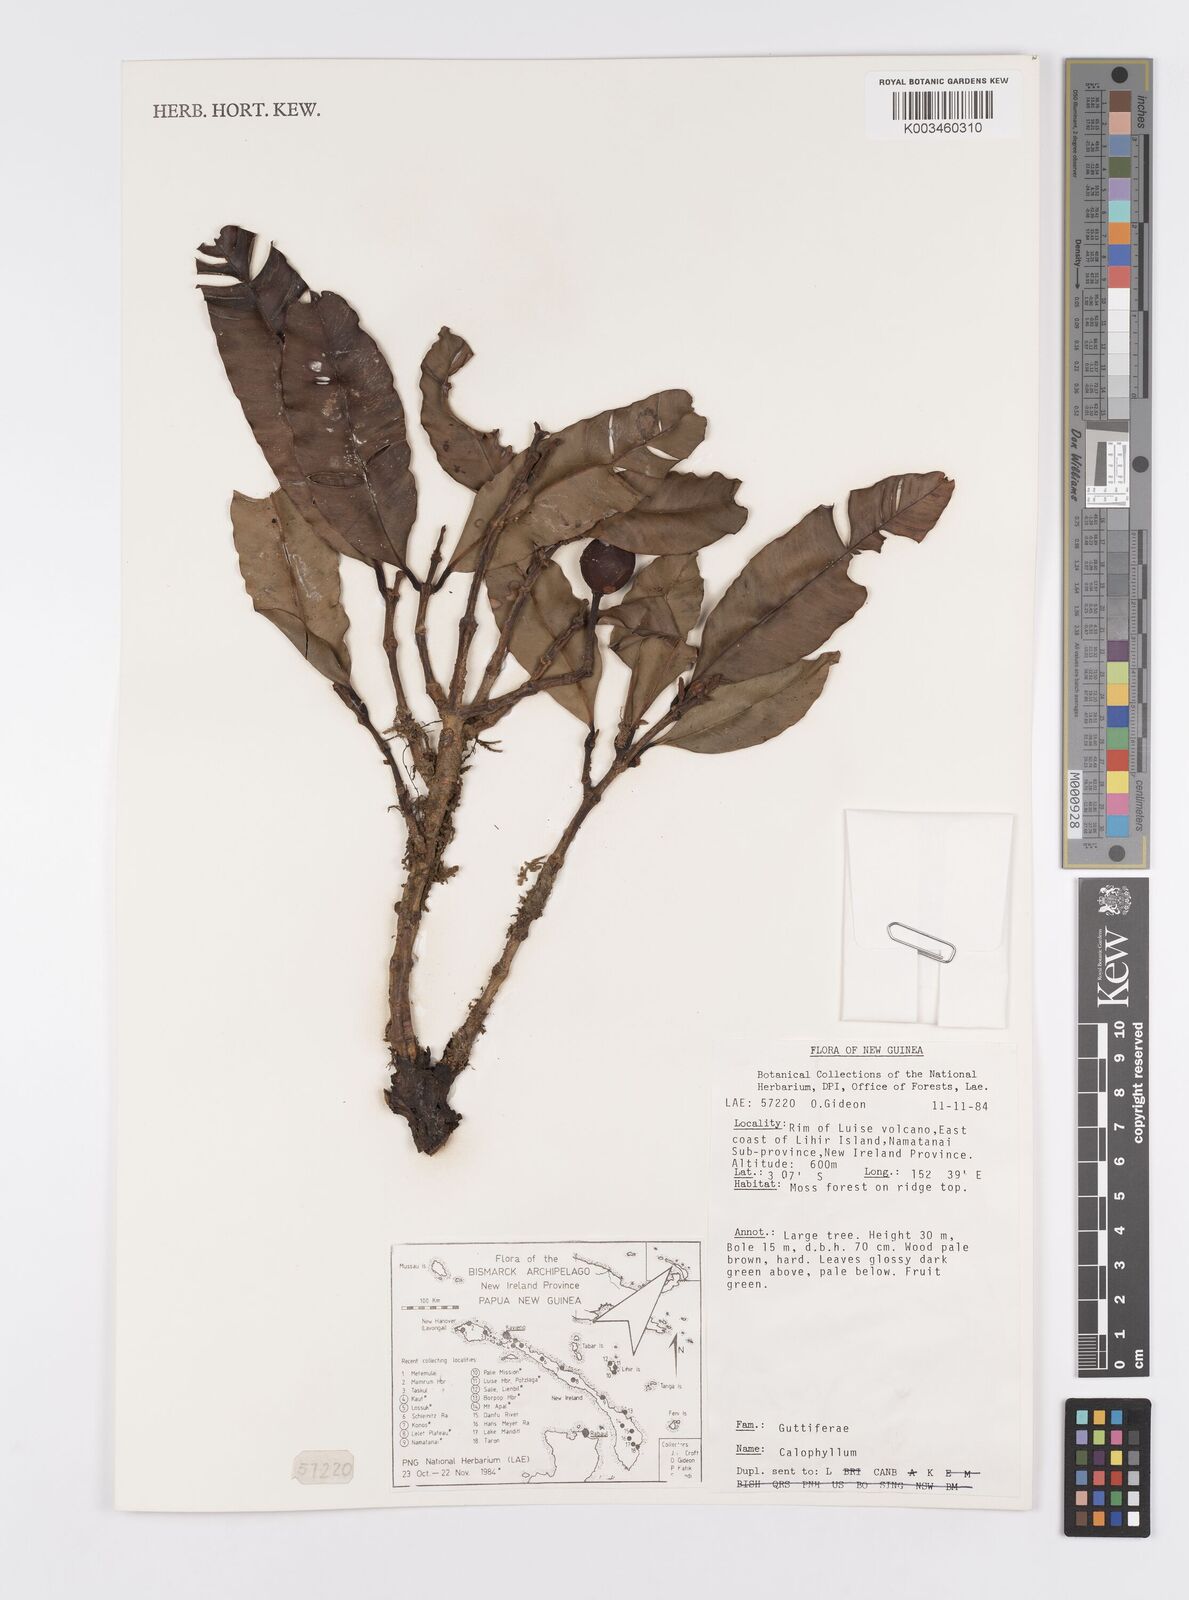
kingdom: Plantae
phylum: Tracheophyta
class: Magnoliopsida
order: Malpighiales
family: Calophyllaceae
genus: Calophyllum
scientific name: Calophyllum
